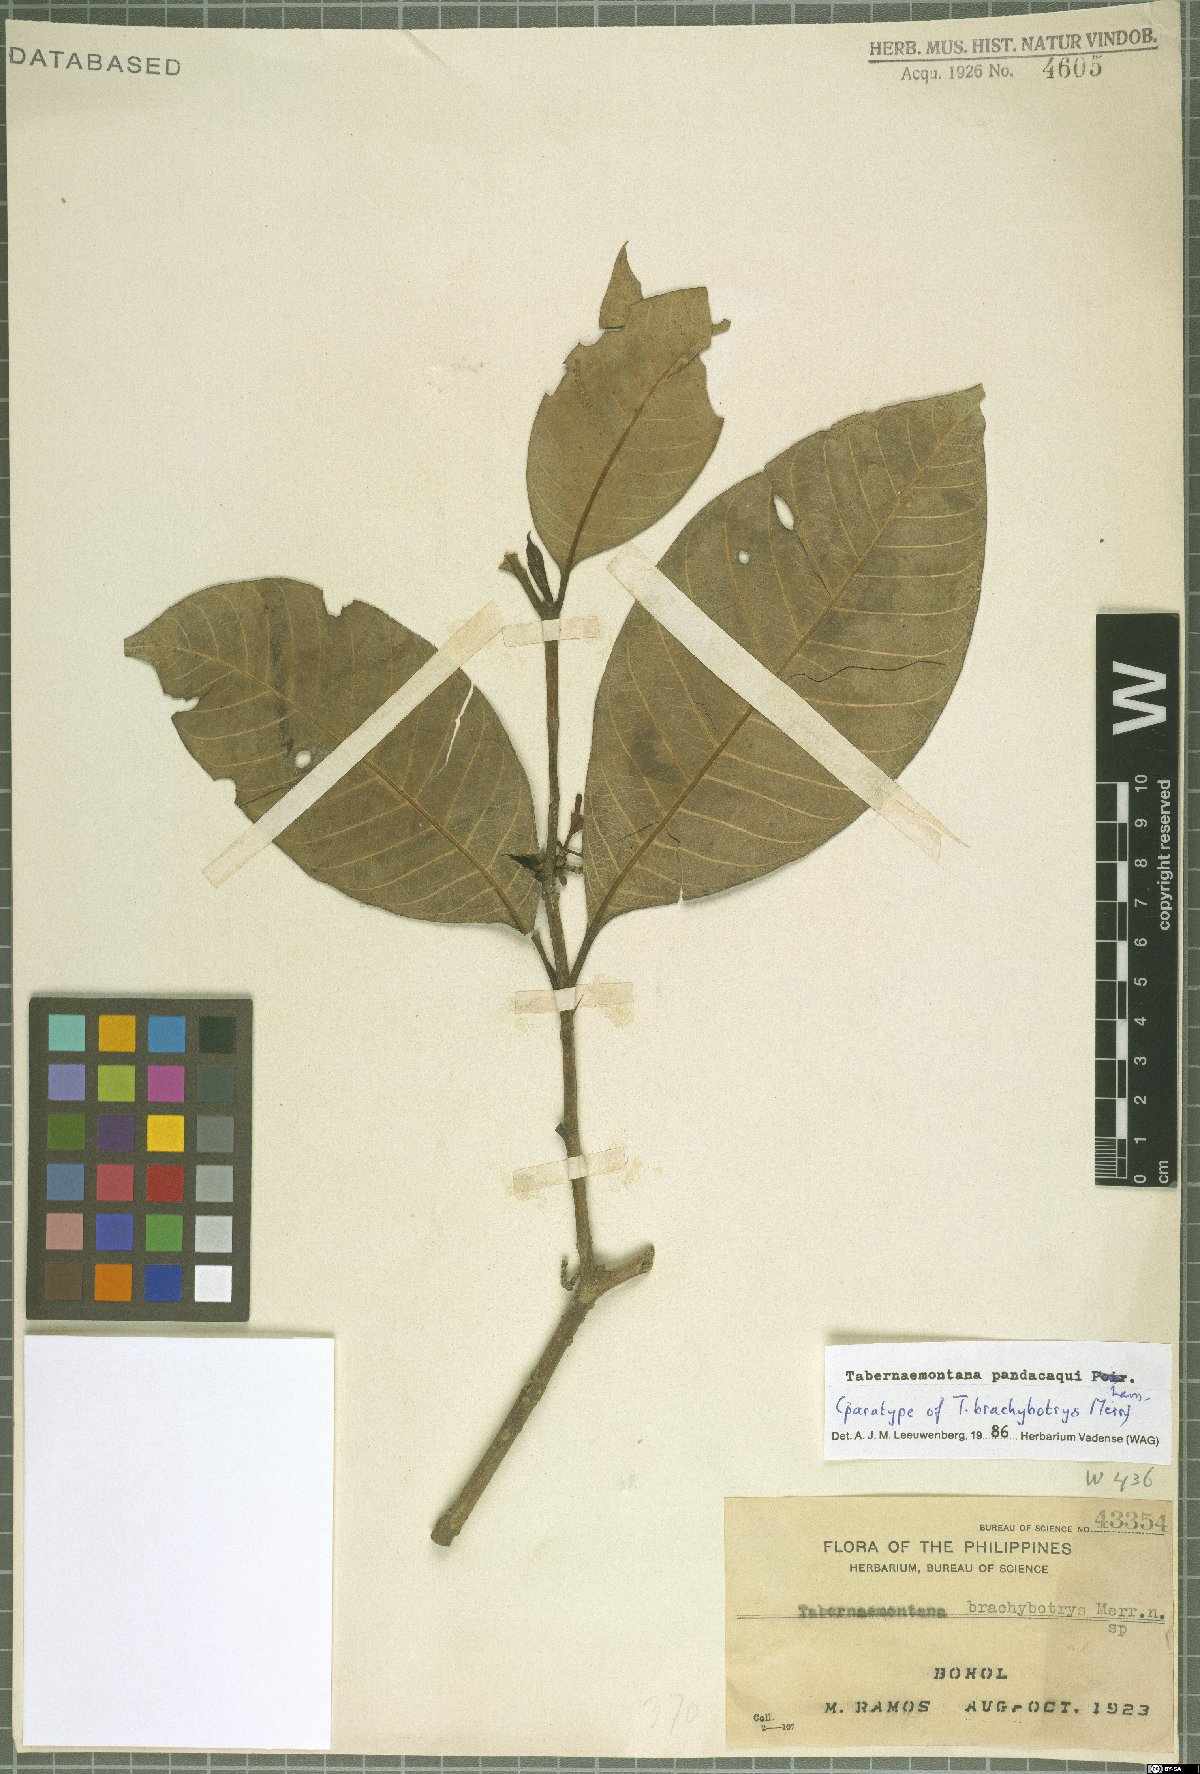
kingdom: Plantae
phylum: Tracheophyta
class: Magnoliopsida
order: Gentianales
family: Apocynaceae
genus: Tabernaemontana
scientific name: Tabernaemontana pandacaqui
